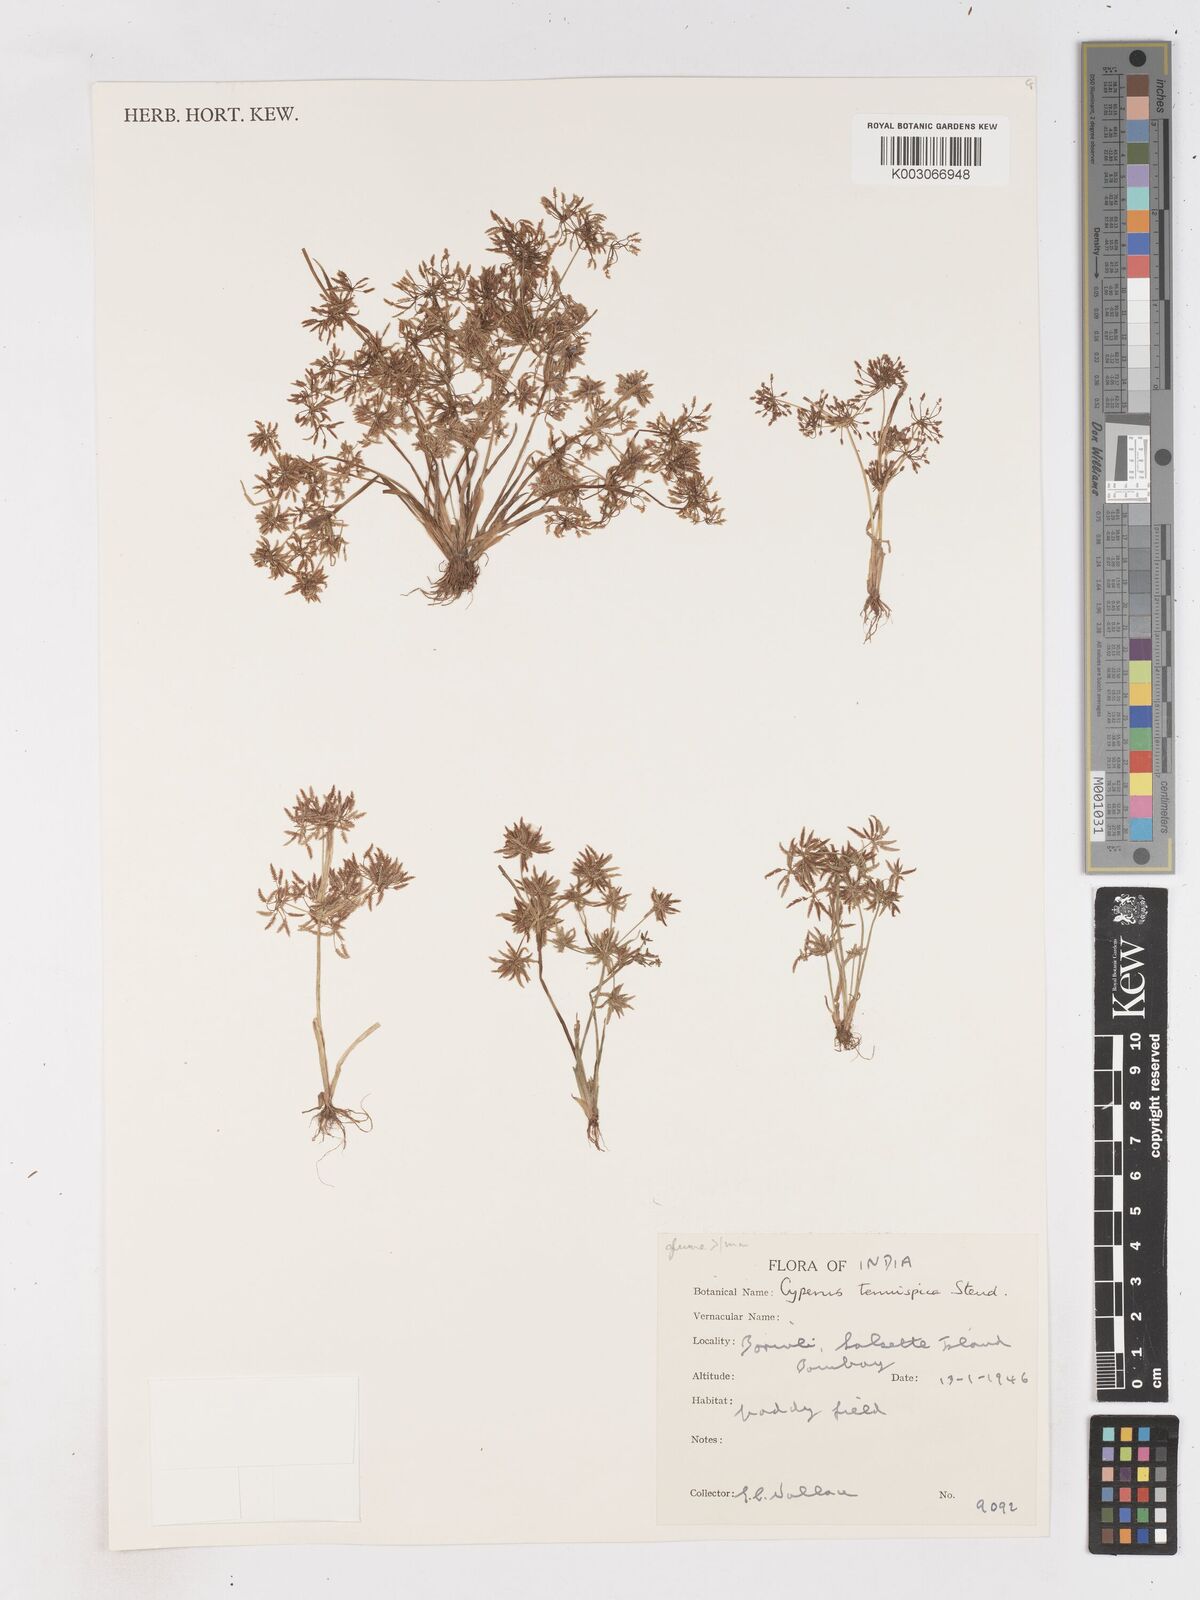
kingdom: Plantae
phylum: Tracheophyta
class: Liliopsida
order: Poales
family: Cyperaceae
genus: Cyperus
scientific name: Cyperus tenuispica
